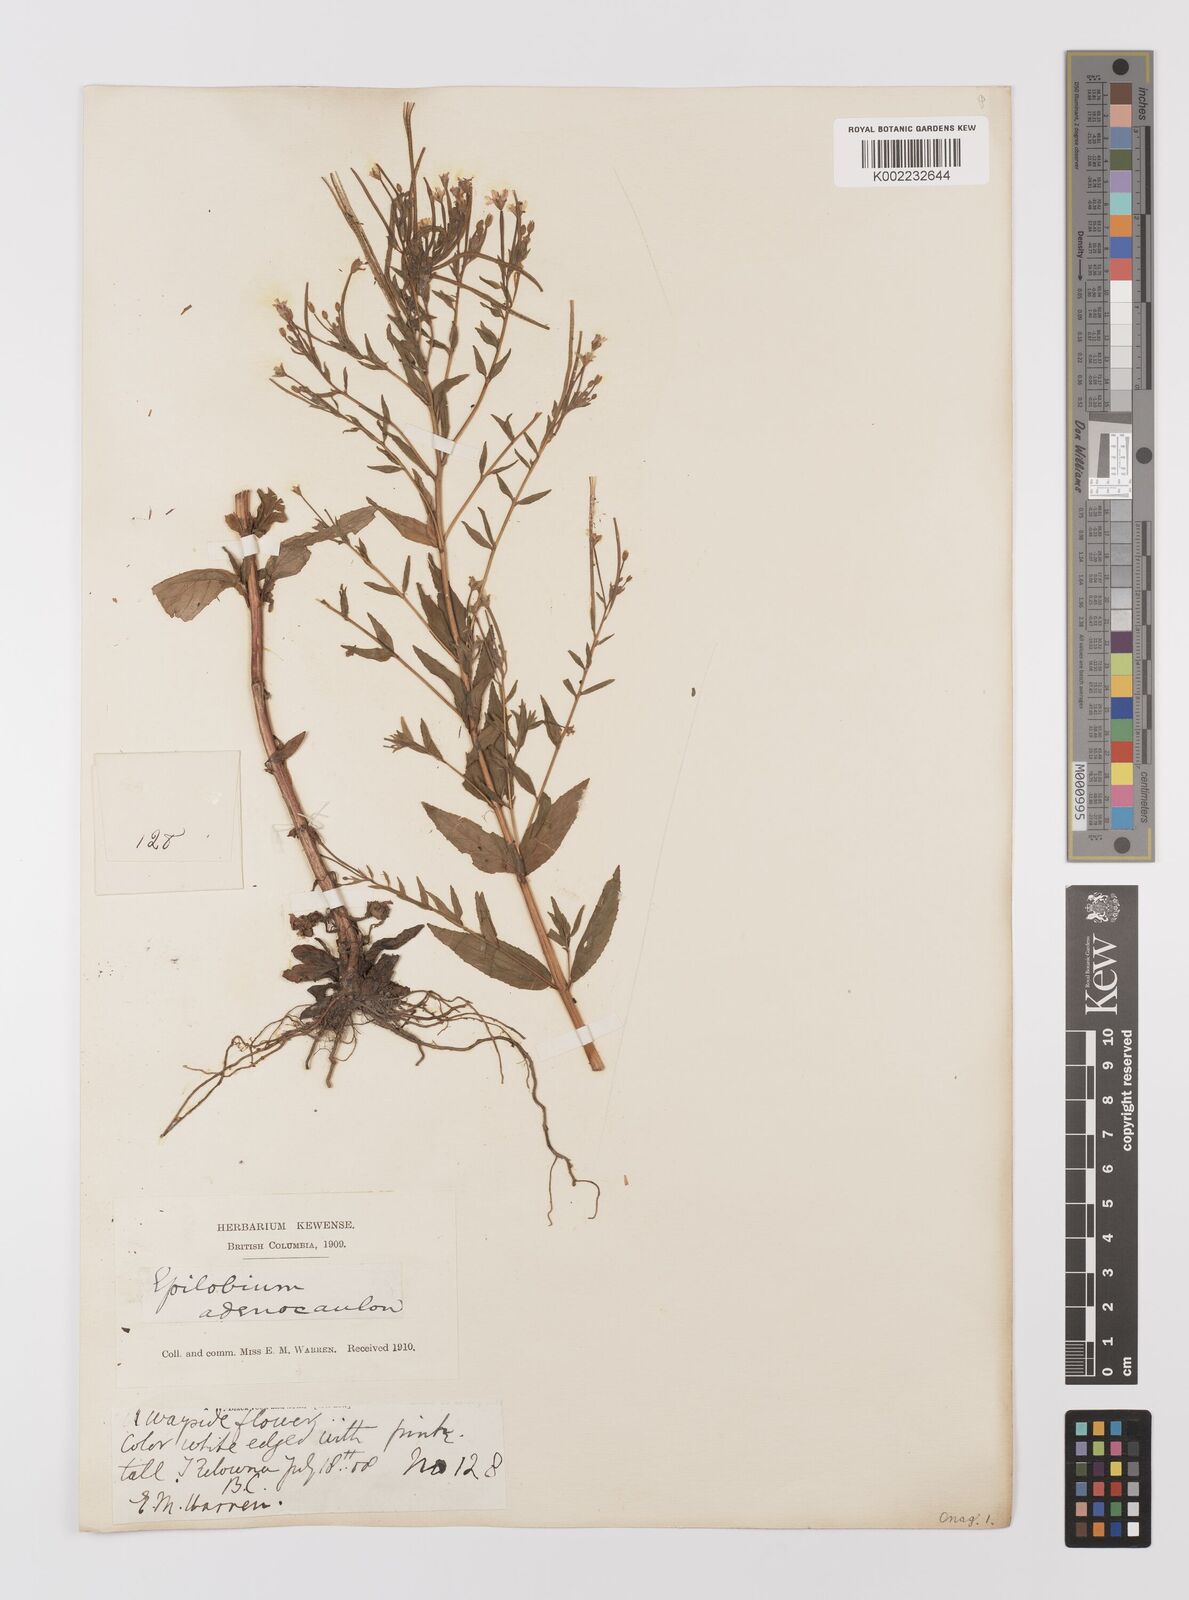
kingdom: Plantae
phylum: Tracheophyta
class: Magnoliopsida
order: Myrtales
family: Onagraceae
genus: Epilobium
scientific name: Epilobium ciliatum
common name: American willowherb
